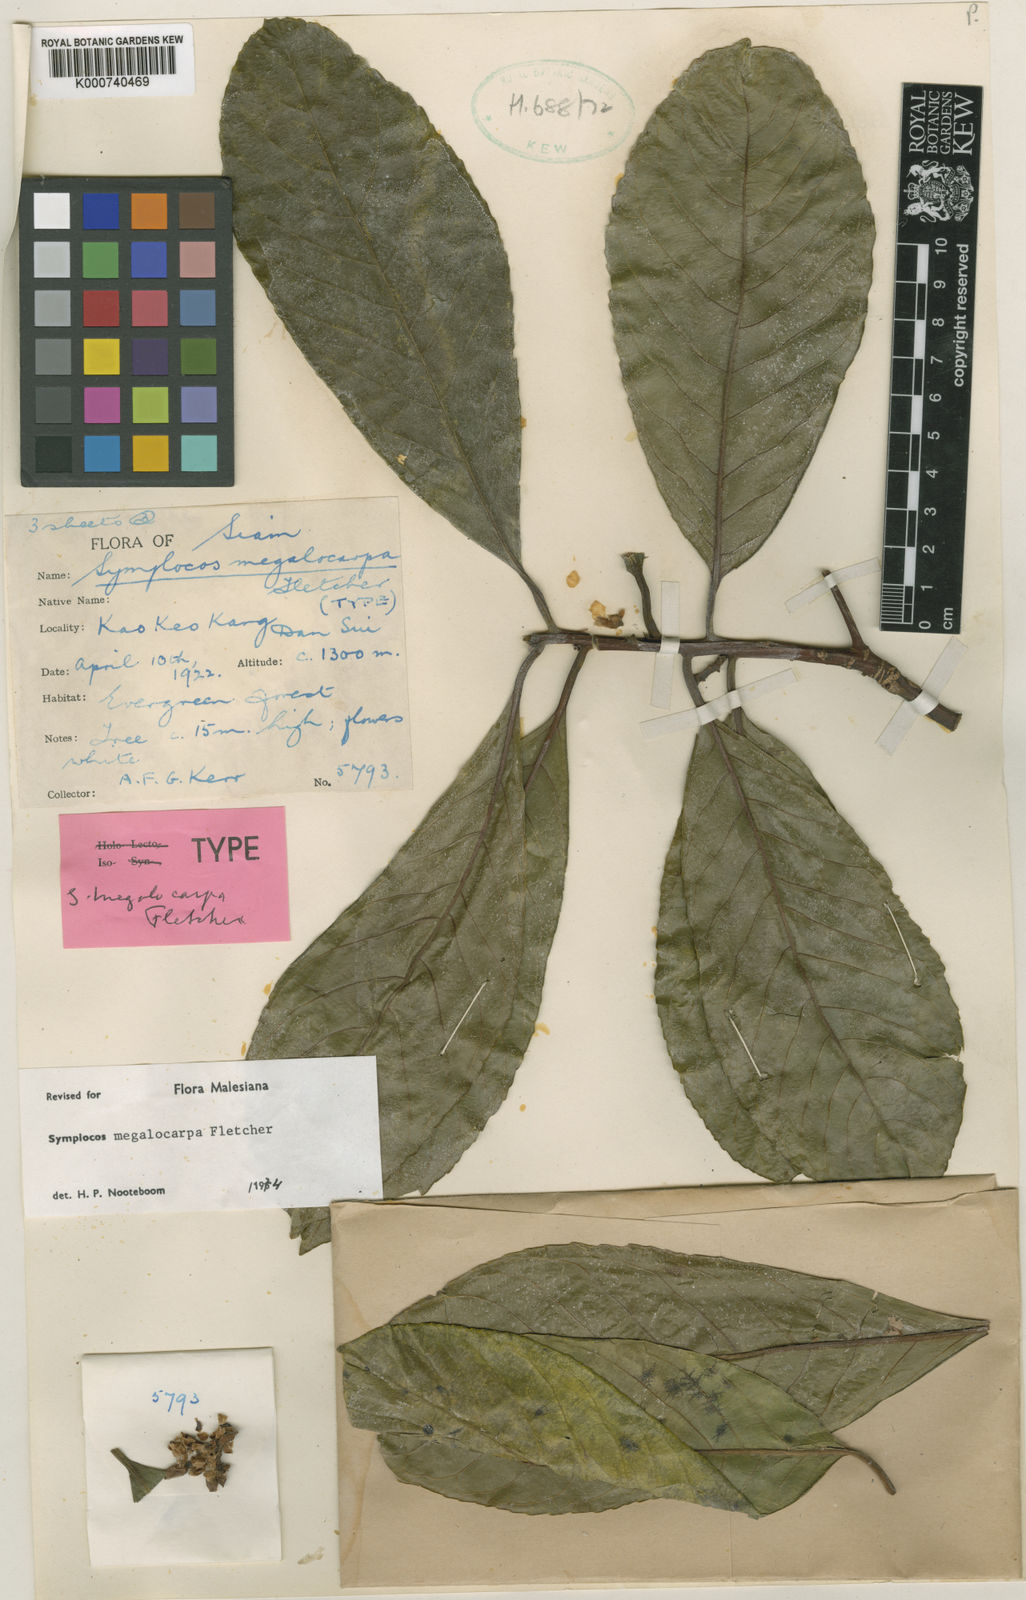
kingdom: Plantae
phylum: Tracheophyta
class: Magnoliopsida
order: Ericales
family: Symplocaceae
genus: Symplocos
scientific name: Symplocos sulcata
